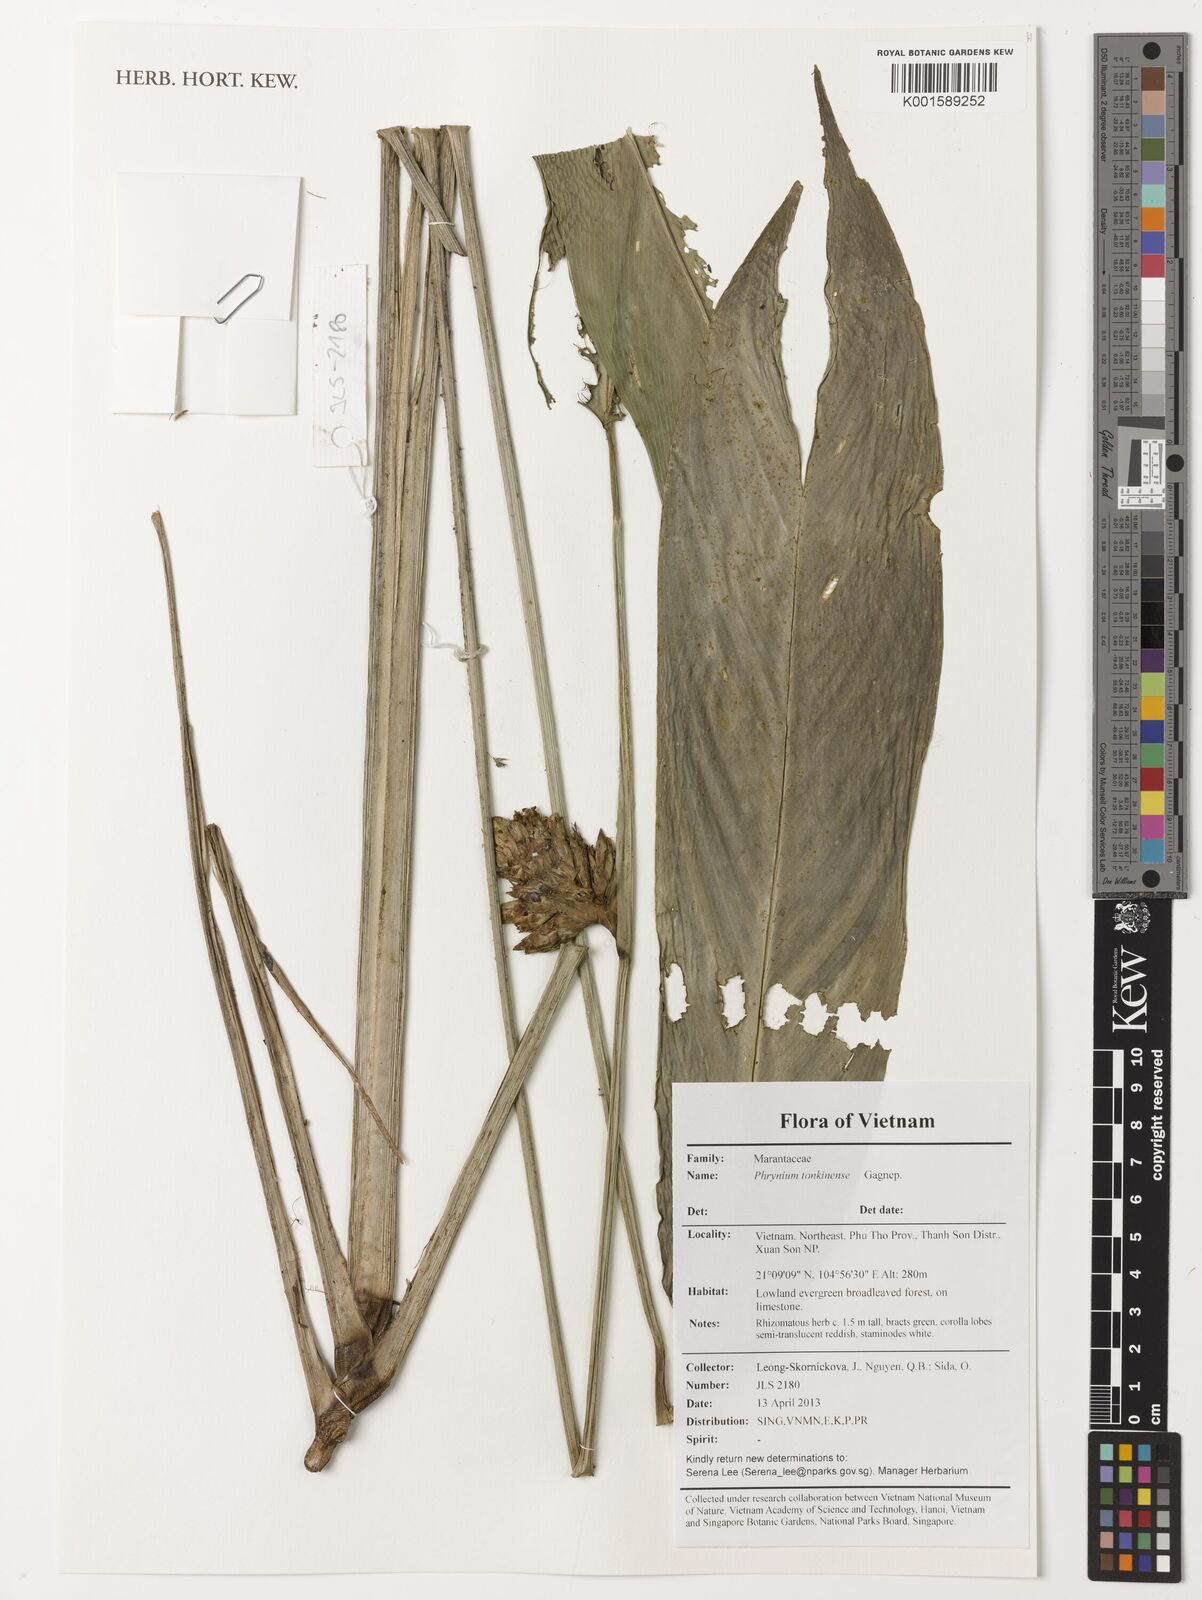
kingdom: Plantae
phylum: Tracheophyta
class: Liliopsida
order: Zingiberales
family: Marantaceae
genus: Phrynium
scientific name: Phrynium tonkinense
